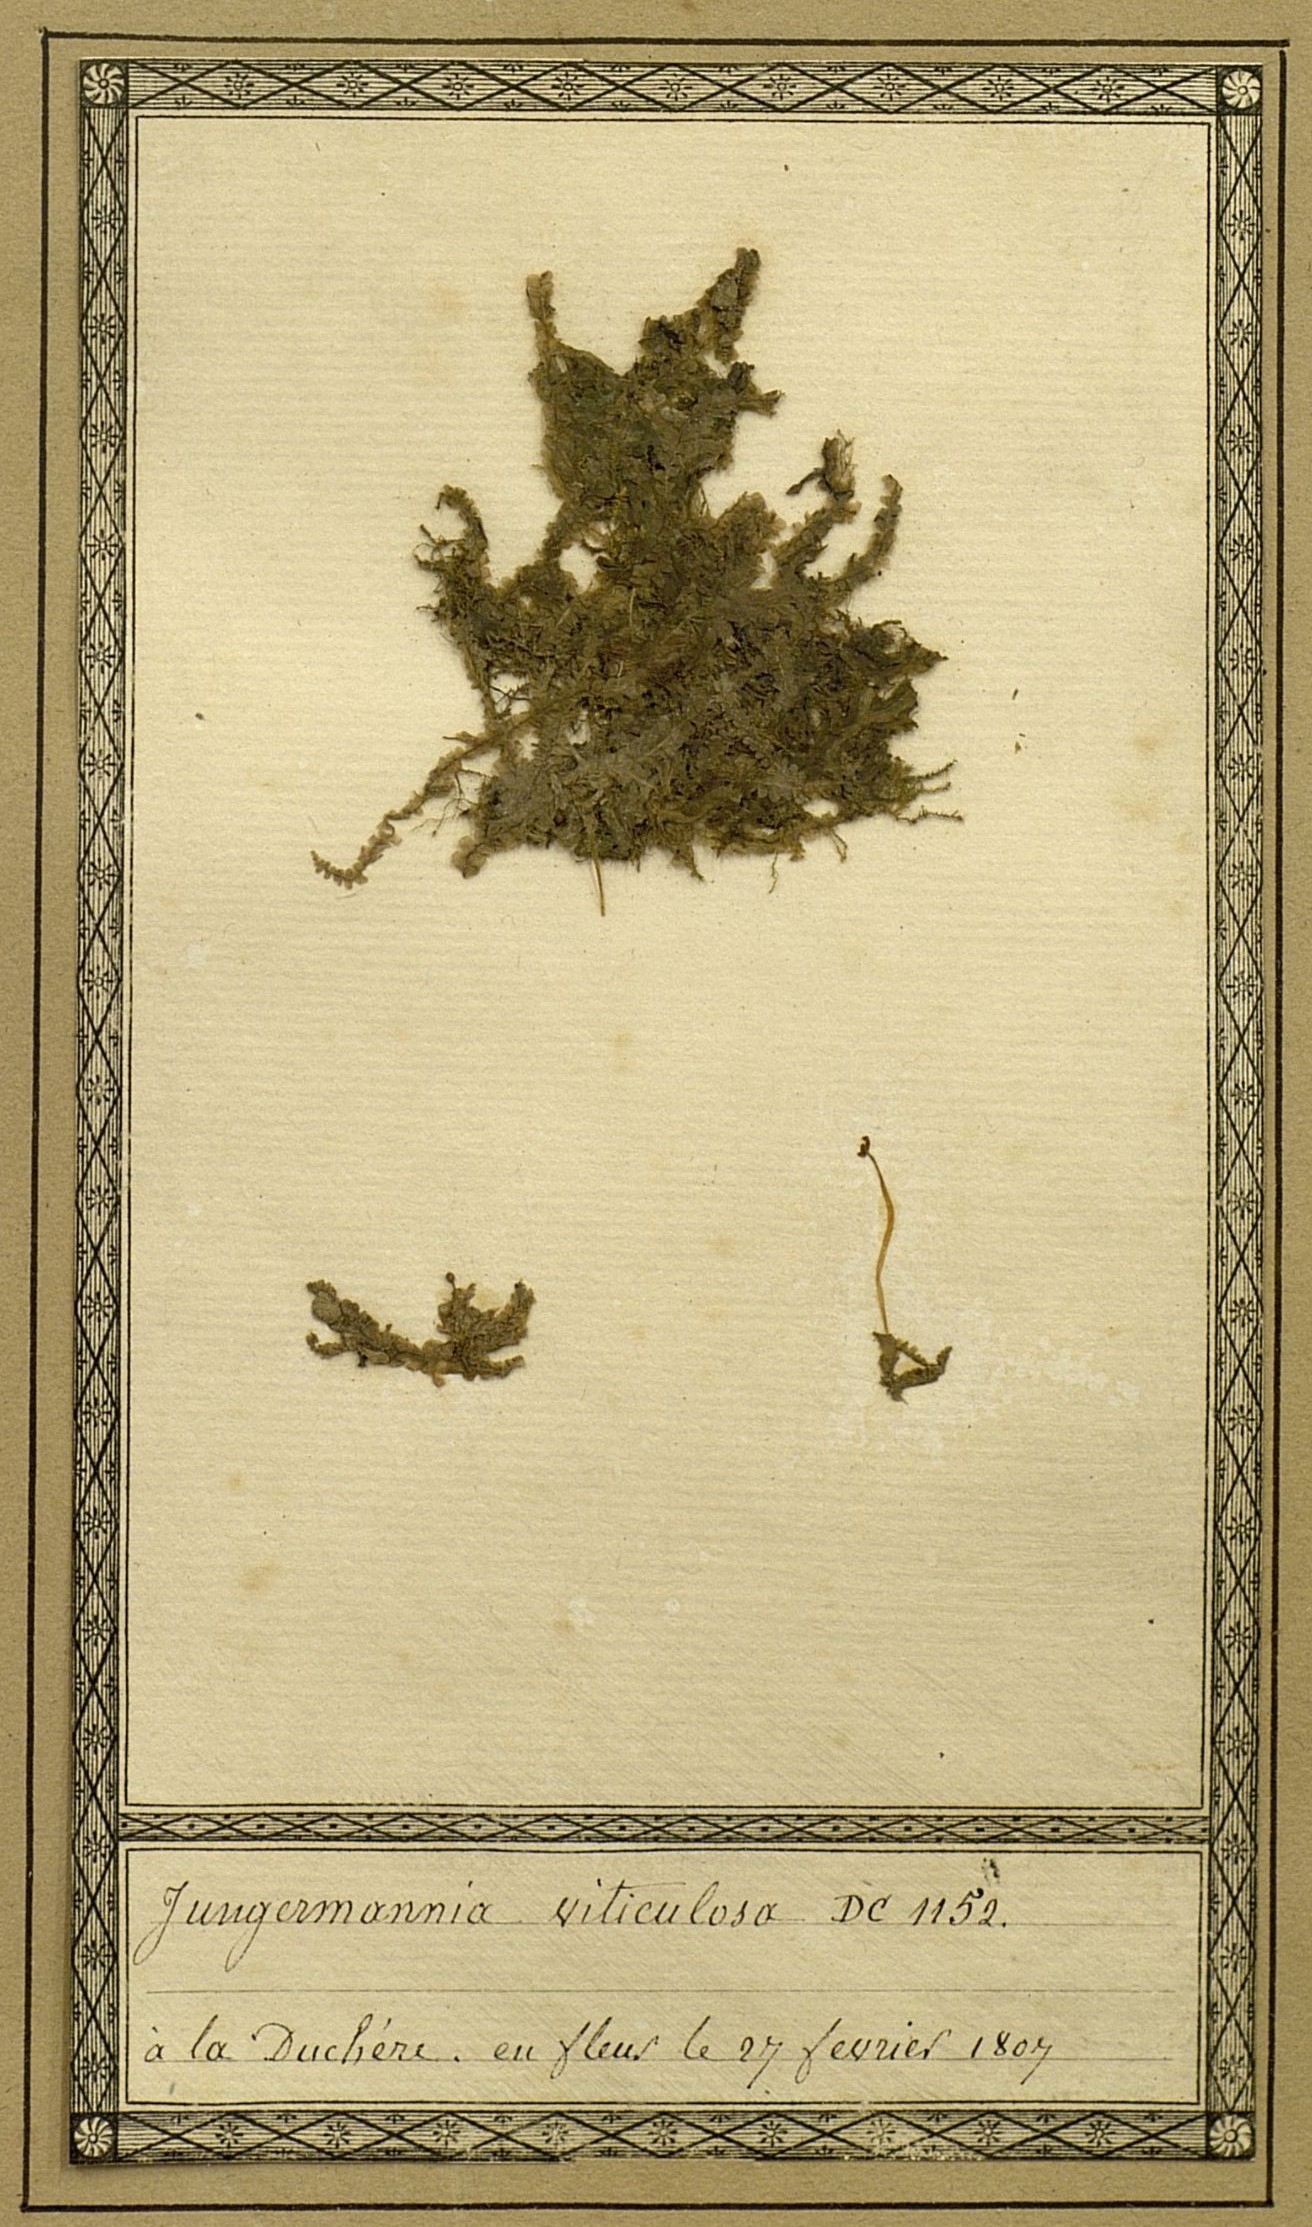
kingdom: Plantae
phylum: Marchantiophyta
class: Jungermanniopsida
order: Jungermanniales
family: Saccogynaceae
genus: Saccogyna
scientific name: Saccogyna viticulosa
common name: Straggling pouchwort
